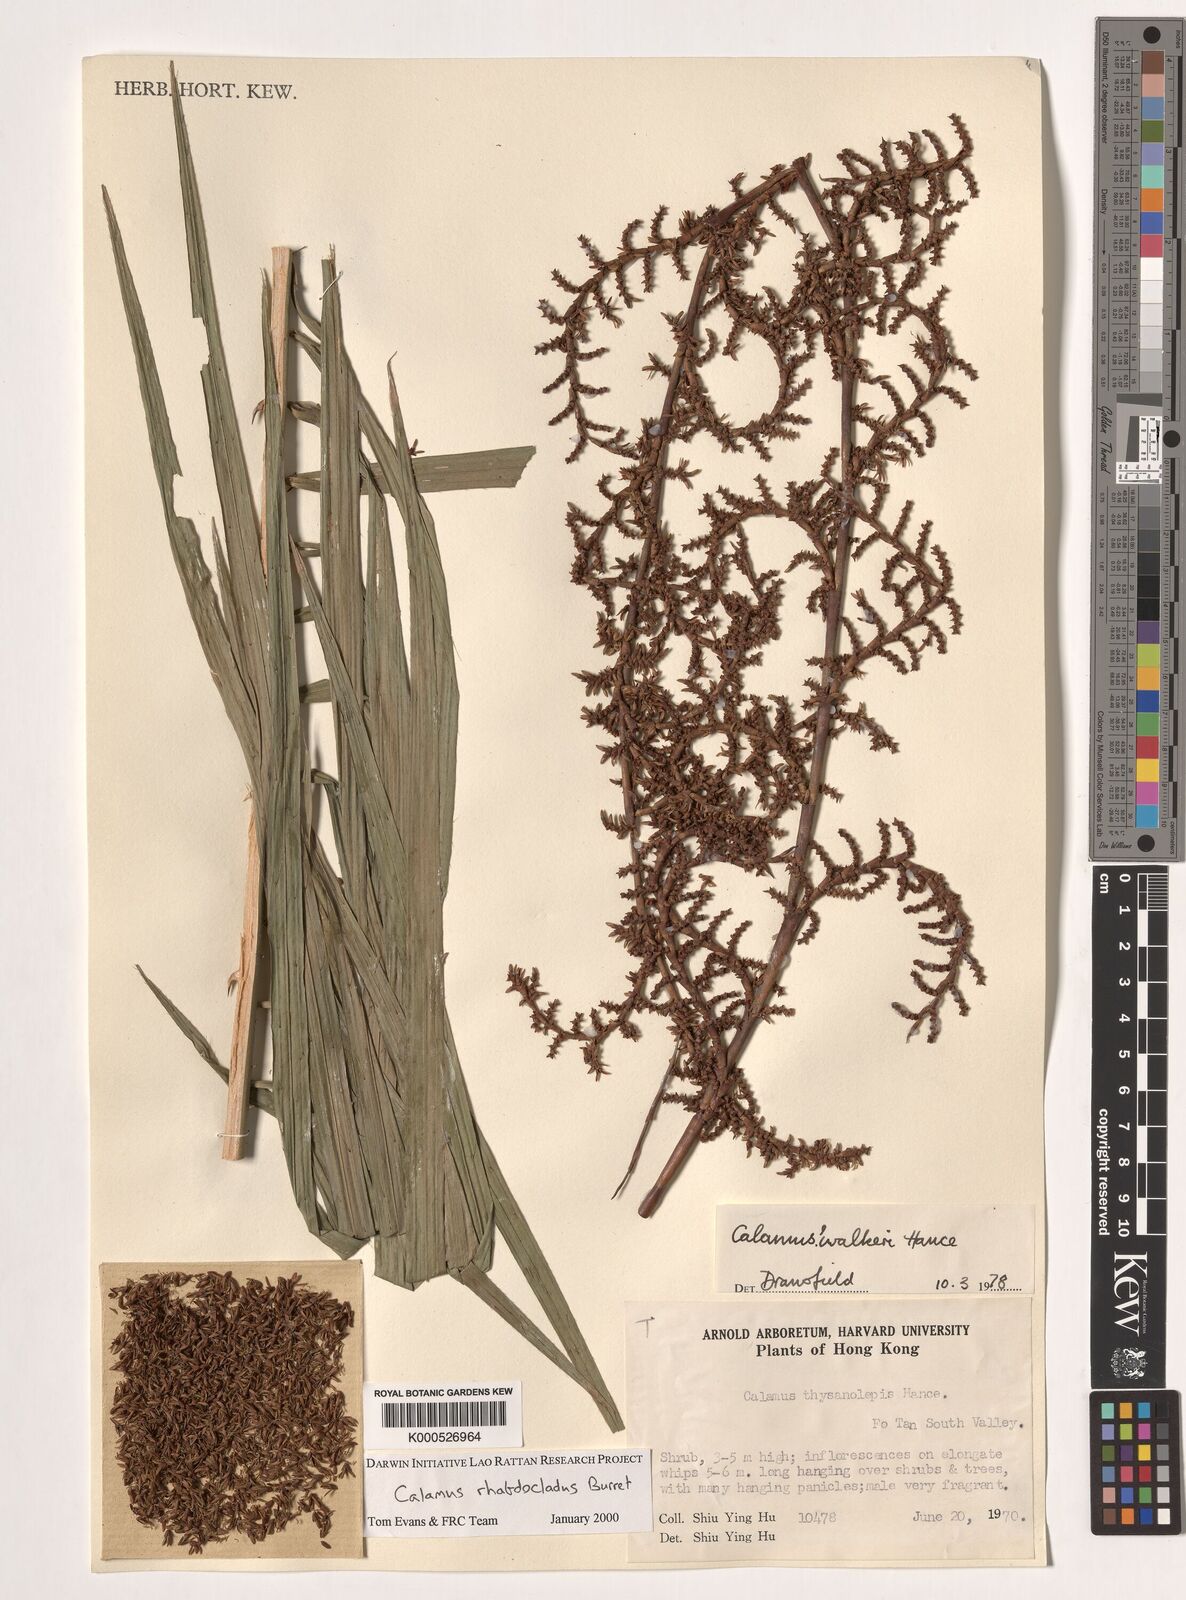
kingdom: Plantae
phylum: Tracheophyta
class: Liliopsida
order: Arecales
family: Arecaceae
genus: Calamus
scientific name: Calamus rhabdocladus
